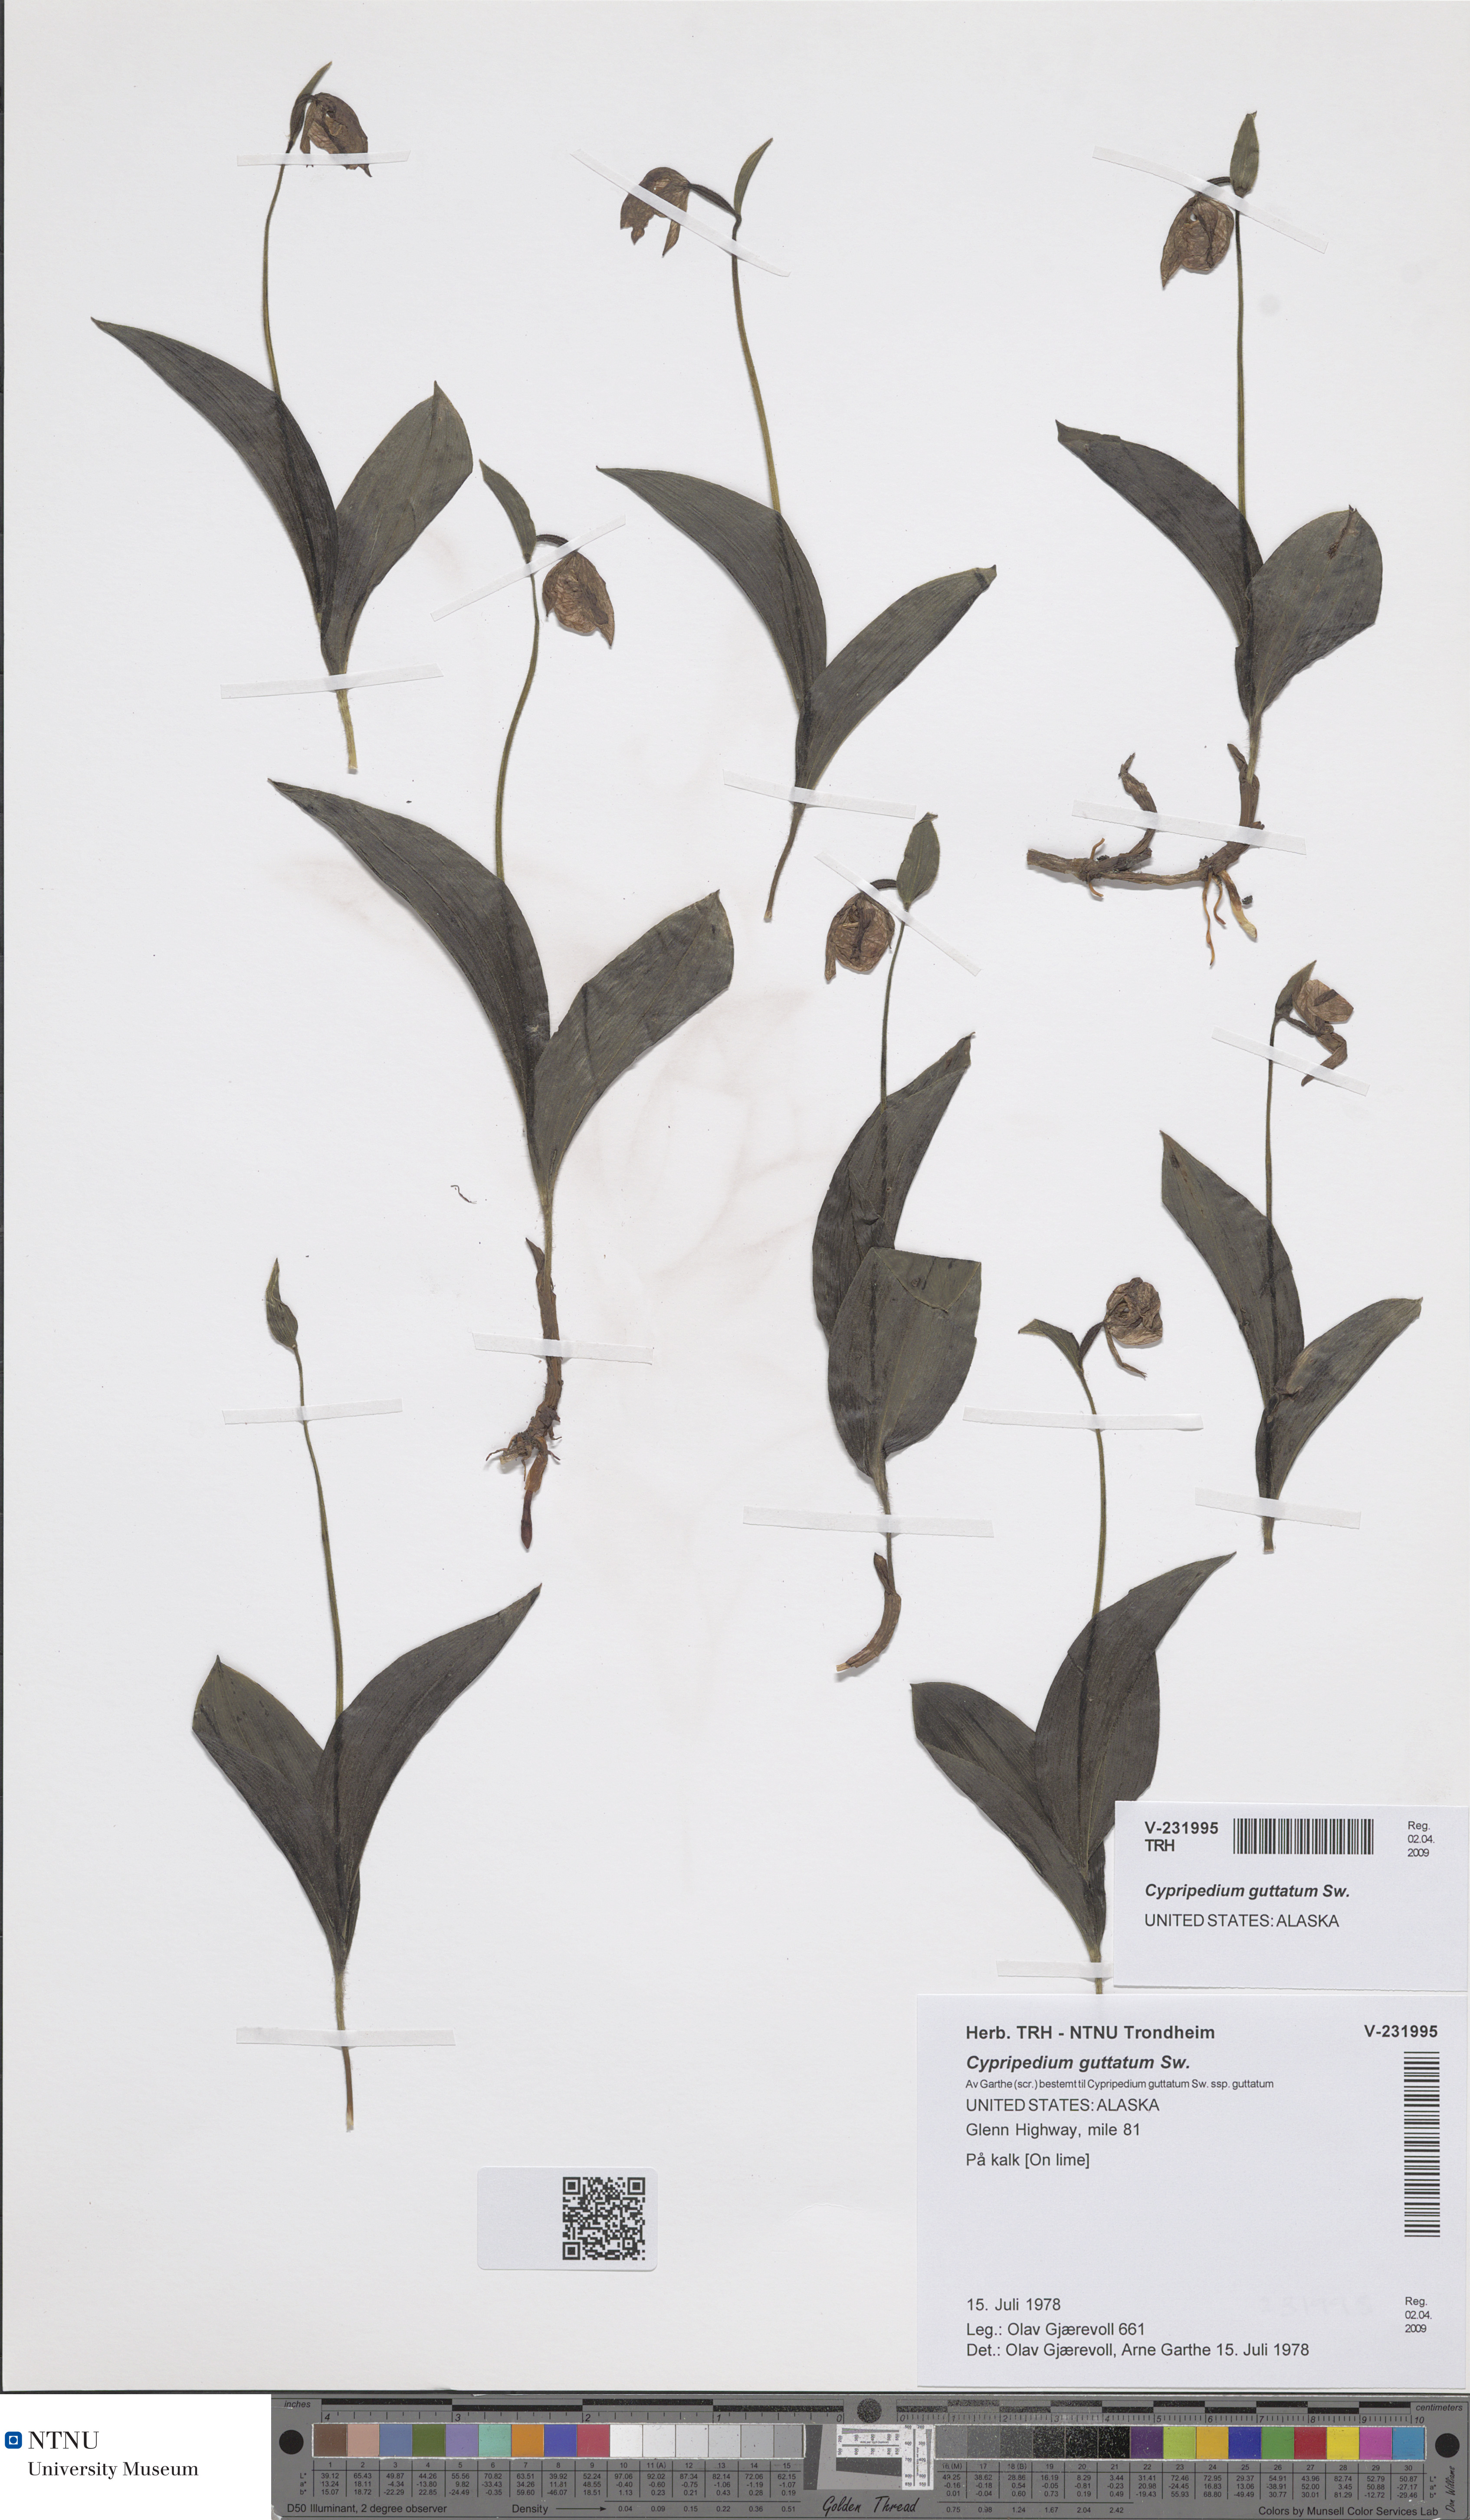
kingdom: Plantae
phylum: Tracheophyta
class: Liliopsida
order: Asparagales
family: Orchidaceae
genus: Cypripedium
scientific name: Cypripedium guttatum
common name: Pink lady slipper
